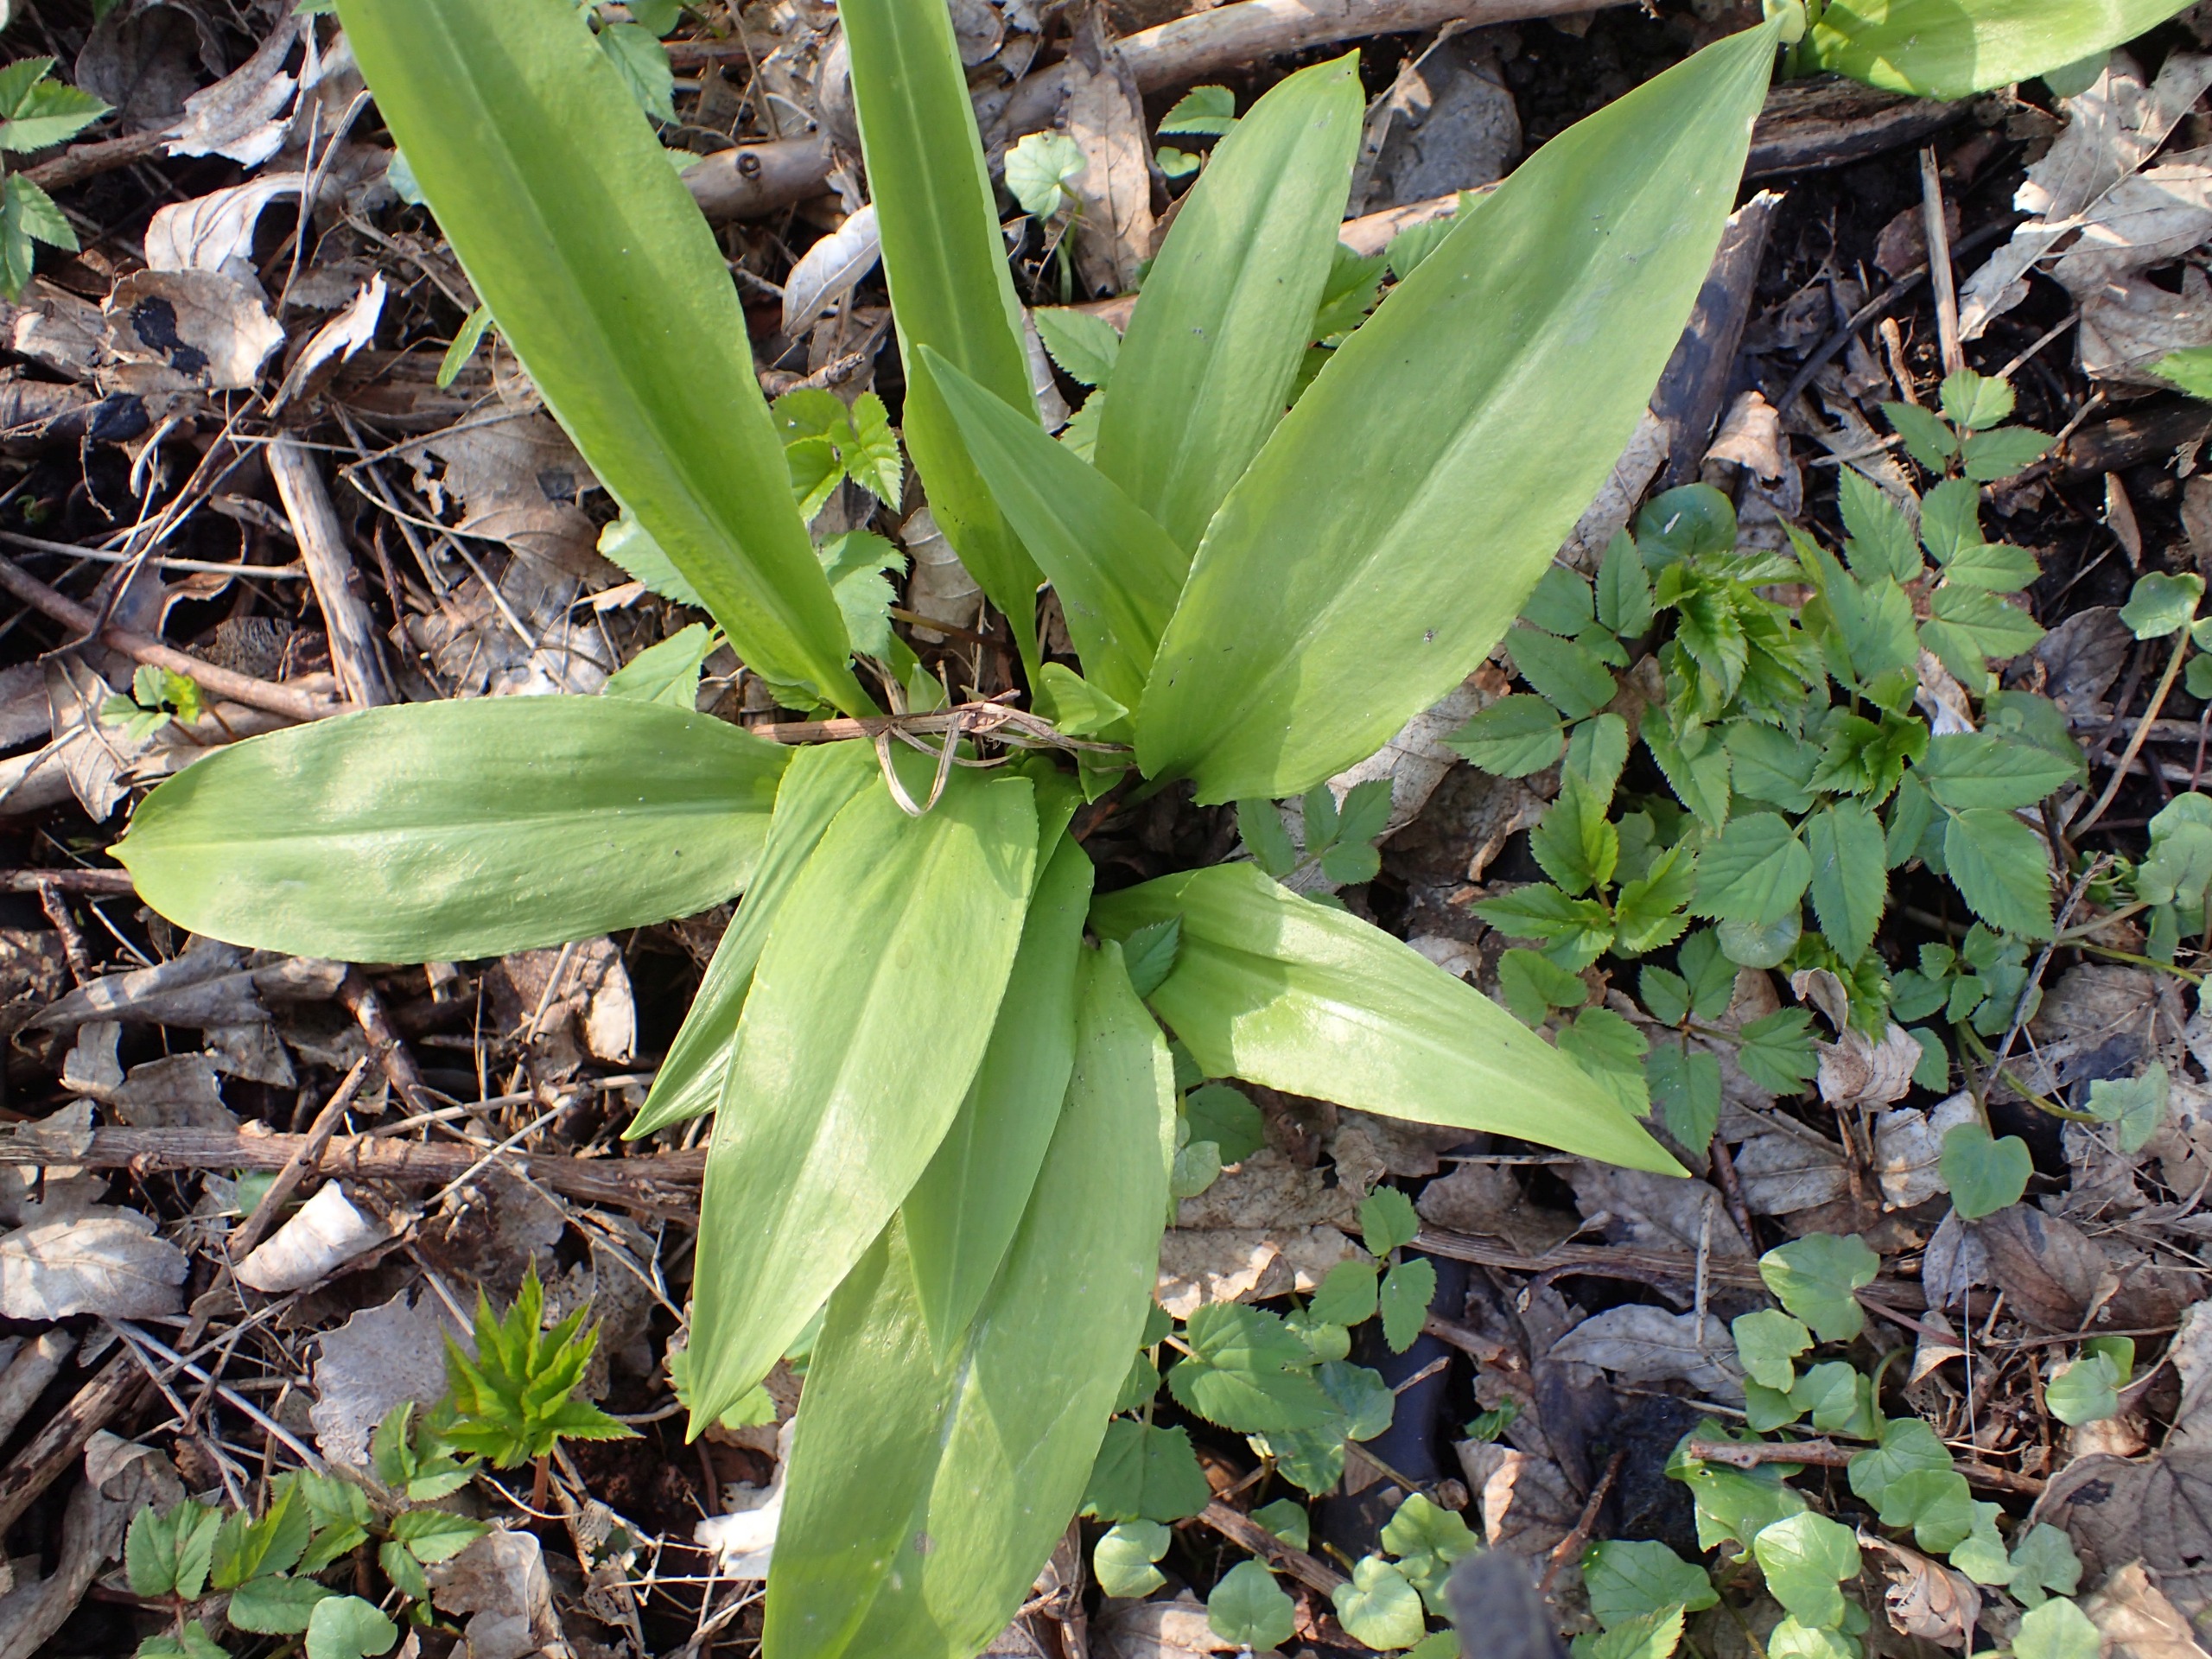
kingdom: Plantae
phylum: Tracheophyta
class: Liliopsida
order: Asparagales
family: Amaryllidaceae
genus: Allium
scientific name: Allium ursinum
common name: Rams-løg
